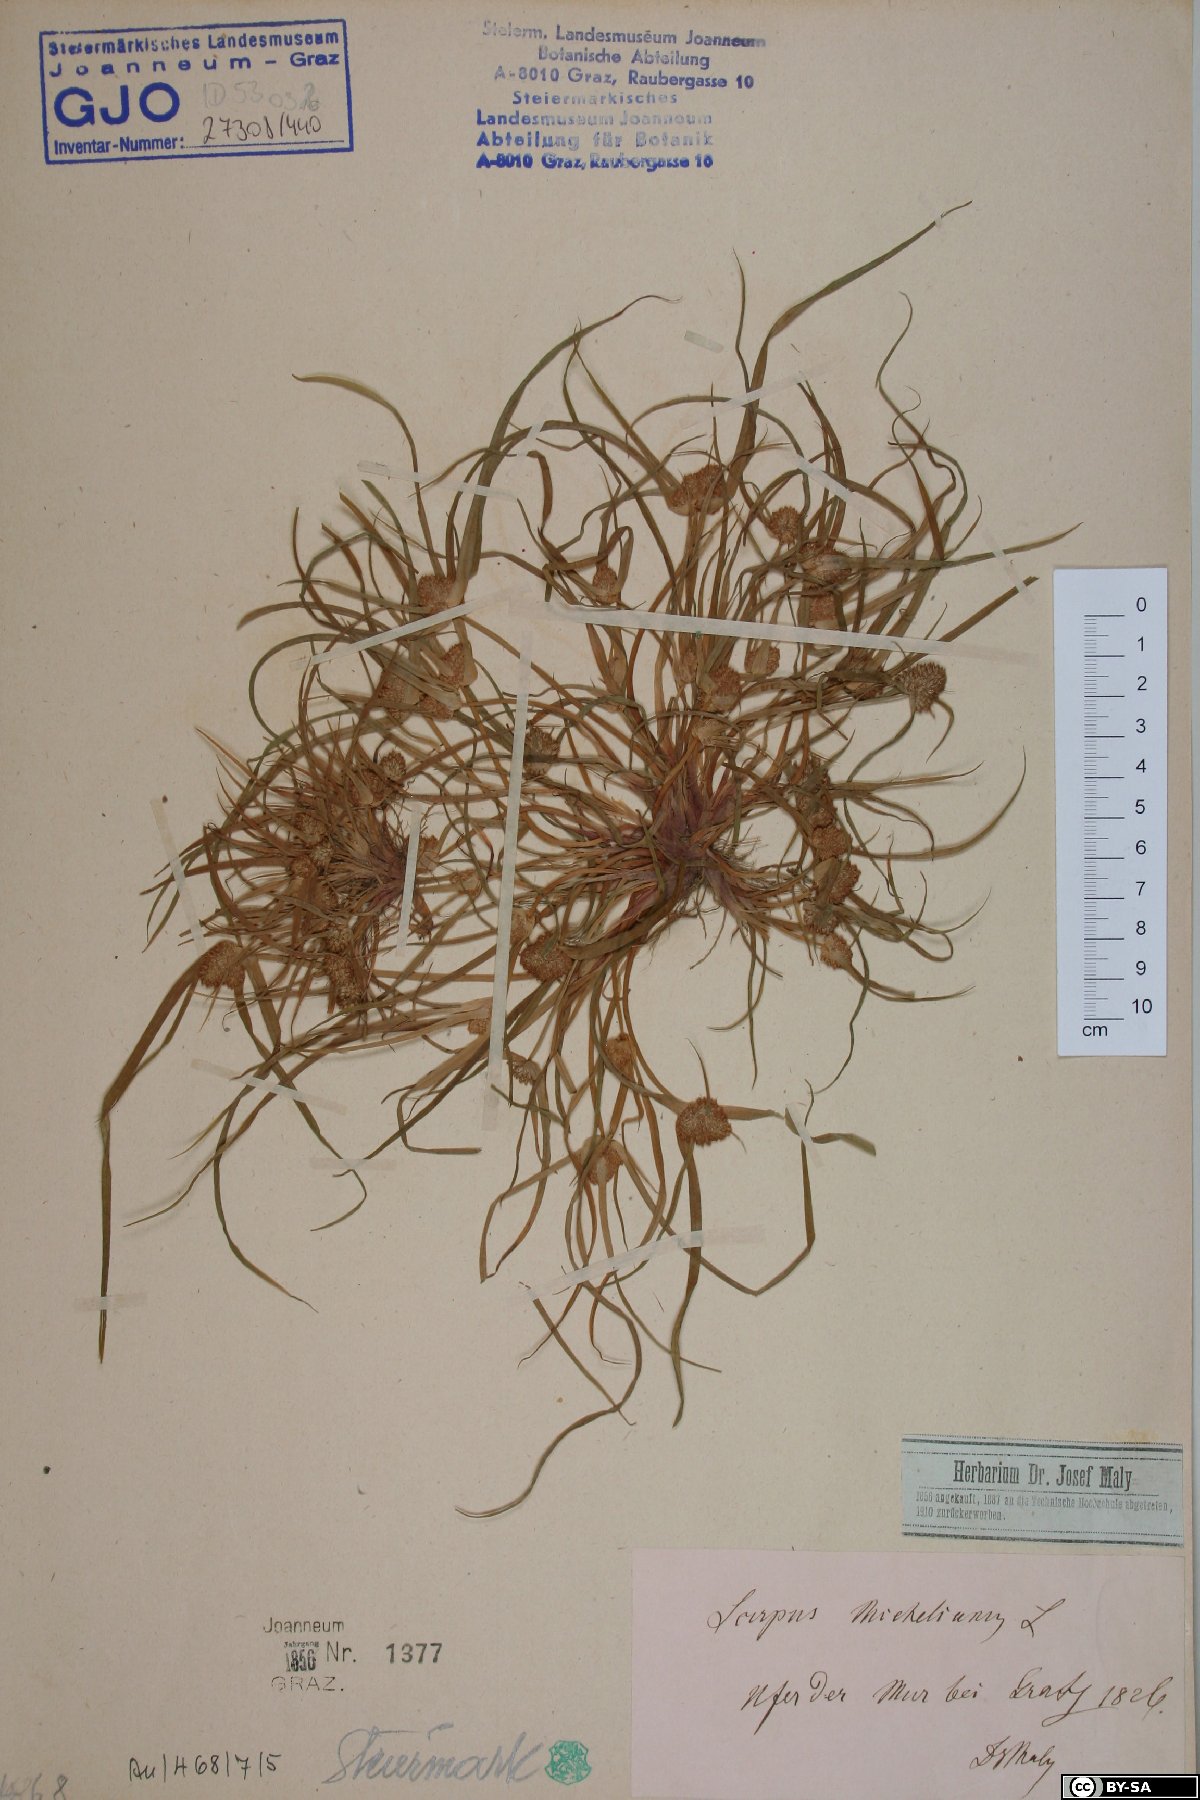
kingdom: Plantae
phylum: Tracheophyta
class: Liliopsida
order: Poales
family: Cyperaceae
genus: Cyperus
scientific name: Cyperus michelianus
